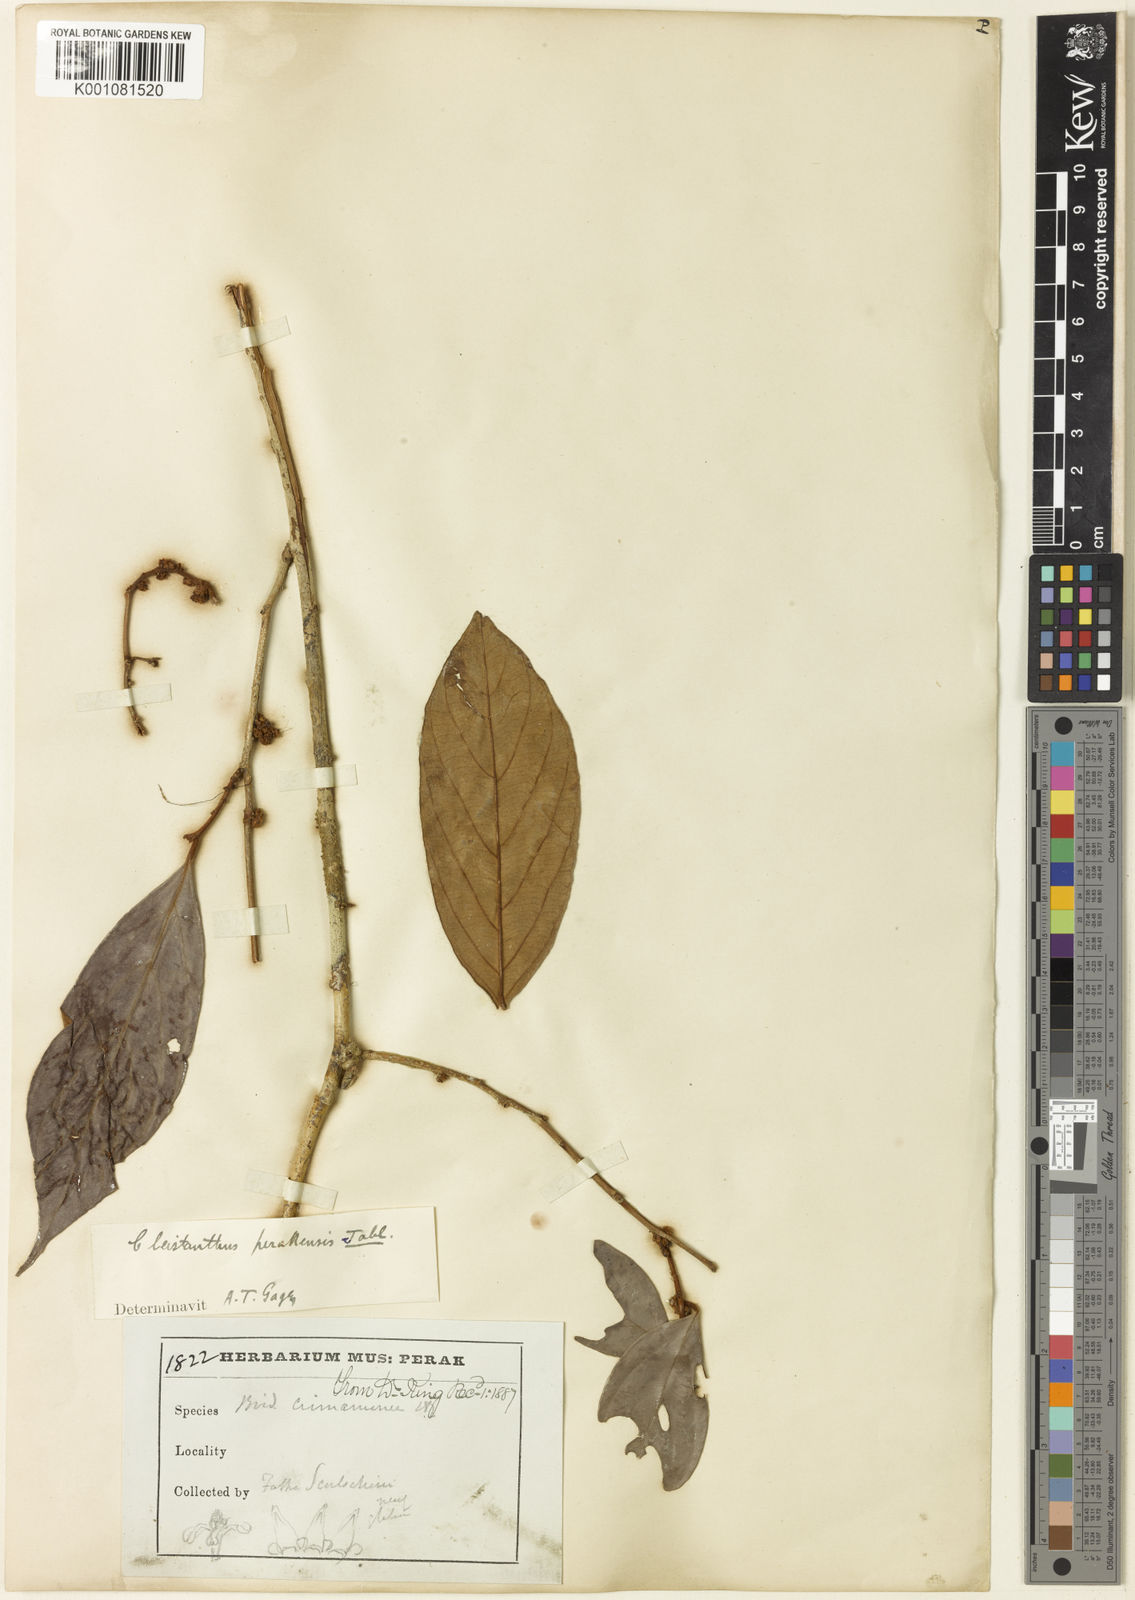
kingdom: Plantae
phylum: Tracheophyta
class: Magnoliopsida
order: Malpighiales
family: Phyllanthaceae
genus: Cleistanthus
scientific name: Cleistanthus vestitus
